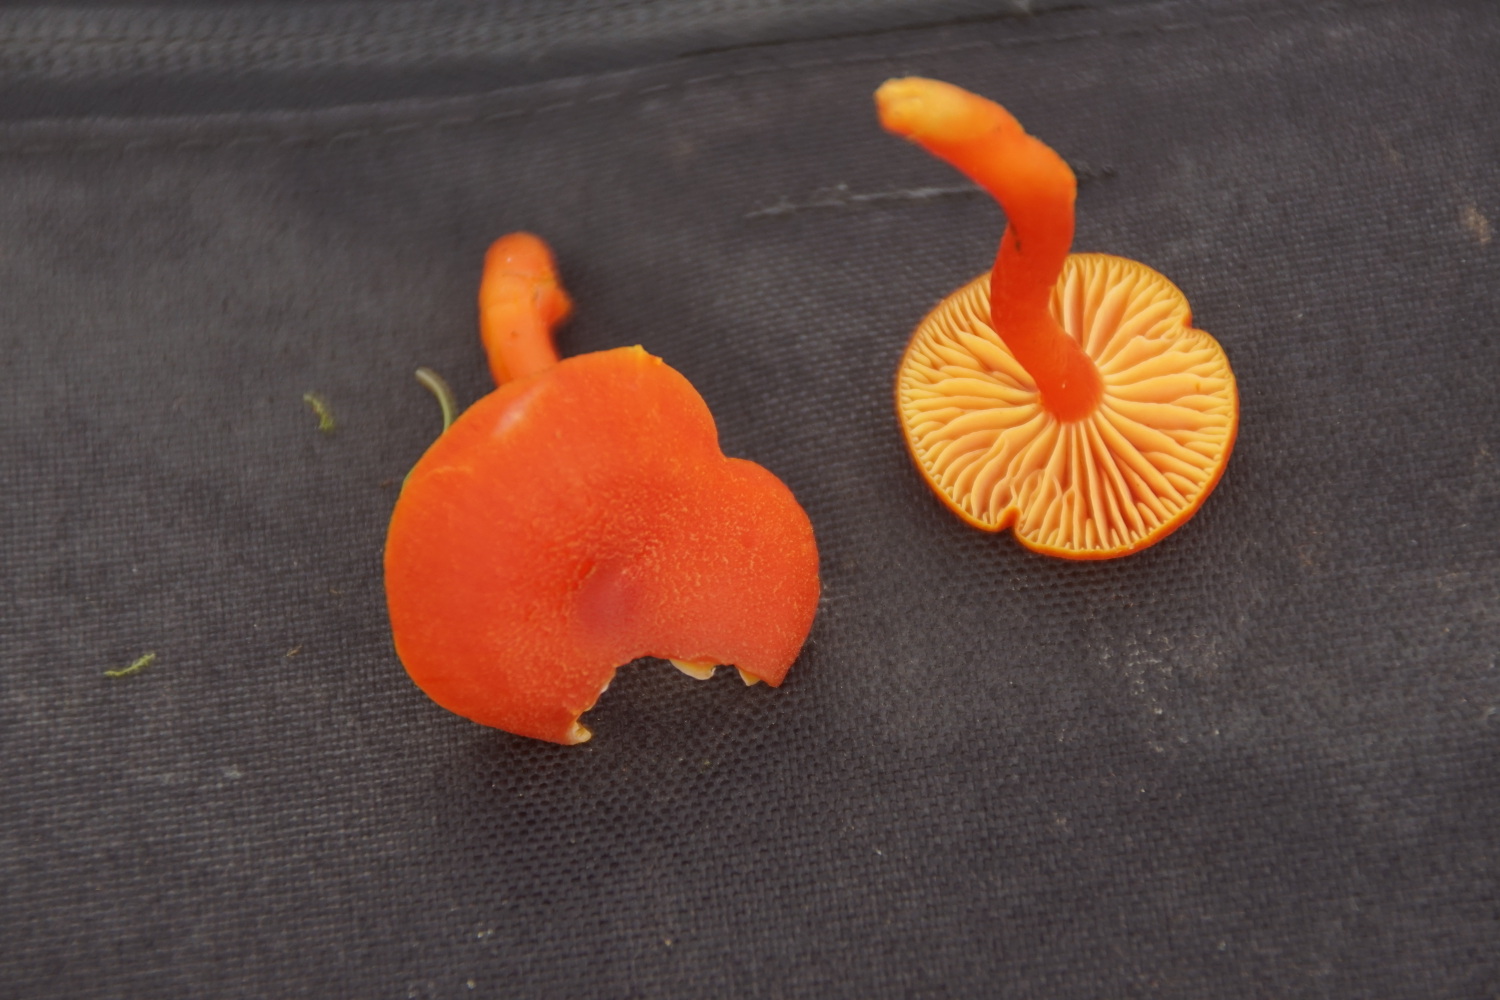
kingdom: Fungi
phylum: Basidiomycota
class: Agaricomycetes
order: Agaricales
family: Hygrophoraceae
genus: Hygrocybe
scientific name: Hygrocybe miniata
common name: mønje-vokshat
